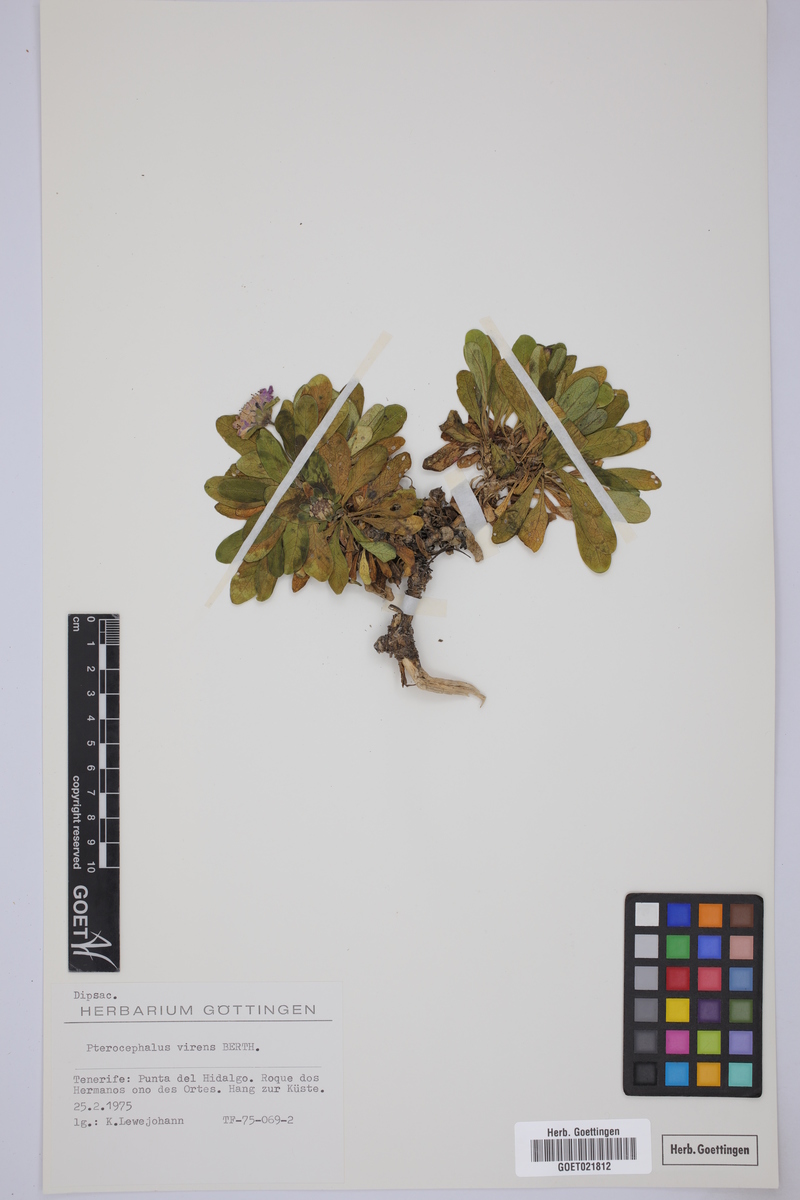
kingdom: Plantae
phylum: Tracheophyta
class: Magnoliopsida
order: Dipsacales
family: Caprifoliaceae
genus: Pterocephalus
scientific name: Pterocephalus virens
